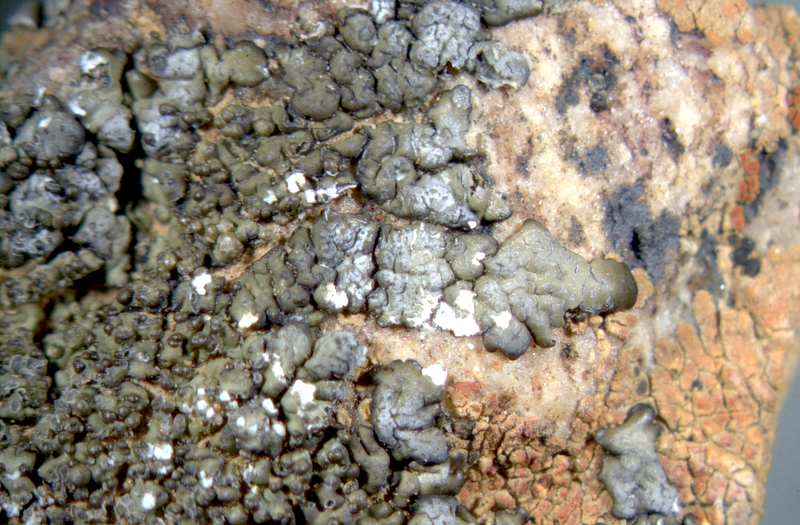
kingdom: Fungi
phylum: Ascomycota
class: Lecanoromycetes
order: Teloschistales
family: Teloschistaceae
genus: Caloplaca
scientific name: Caloplaca rubelliana
